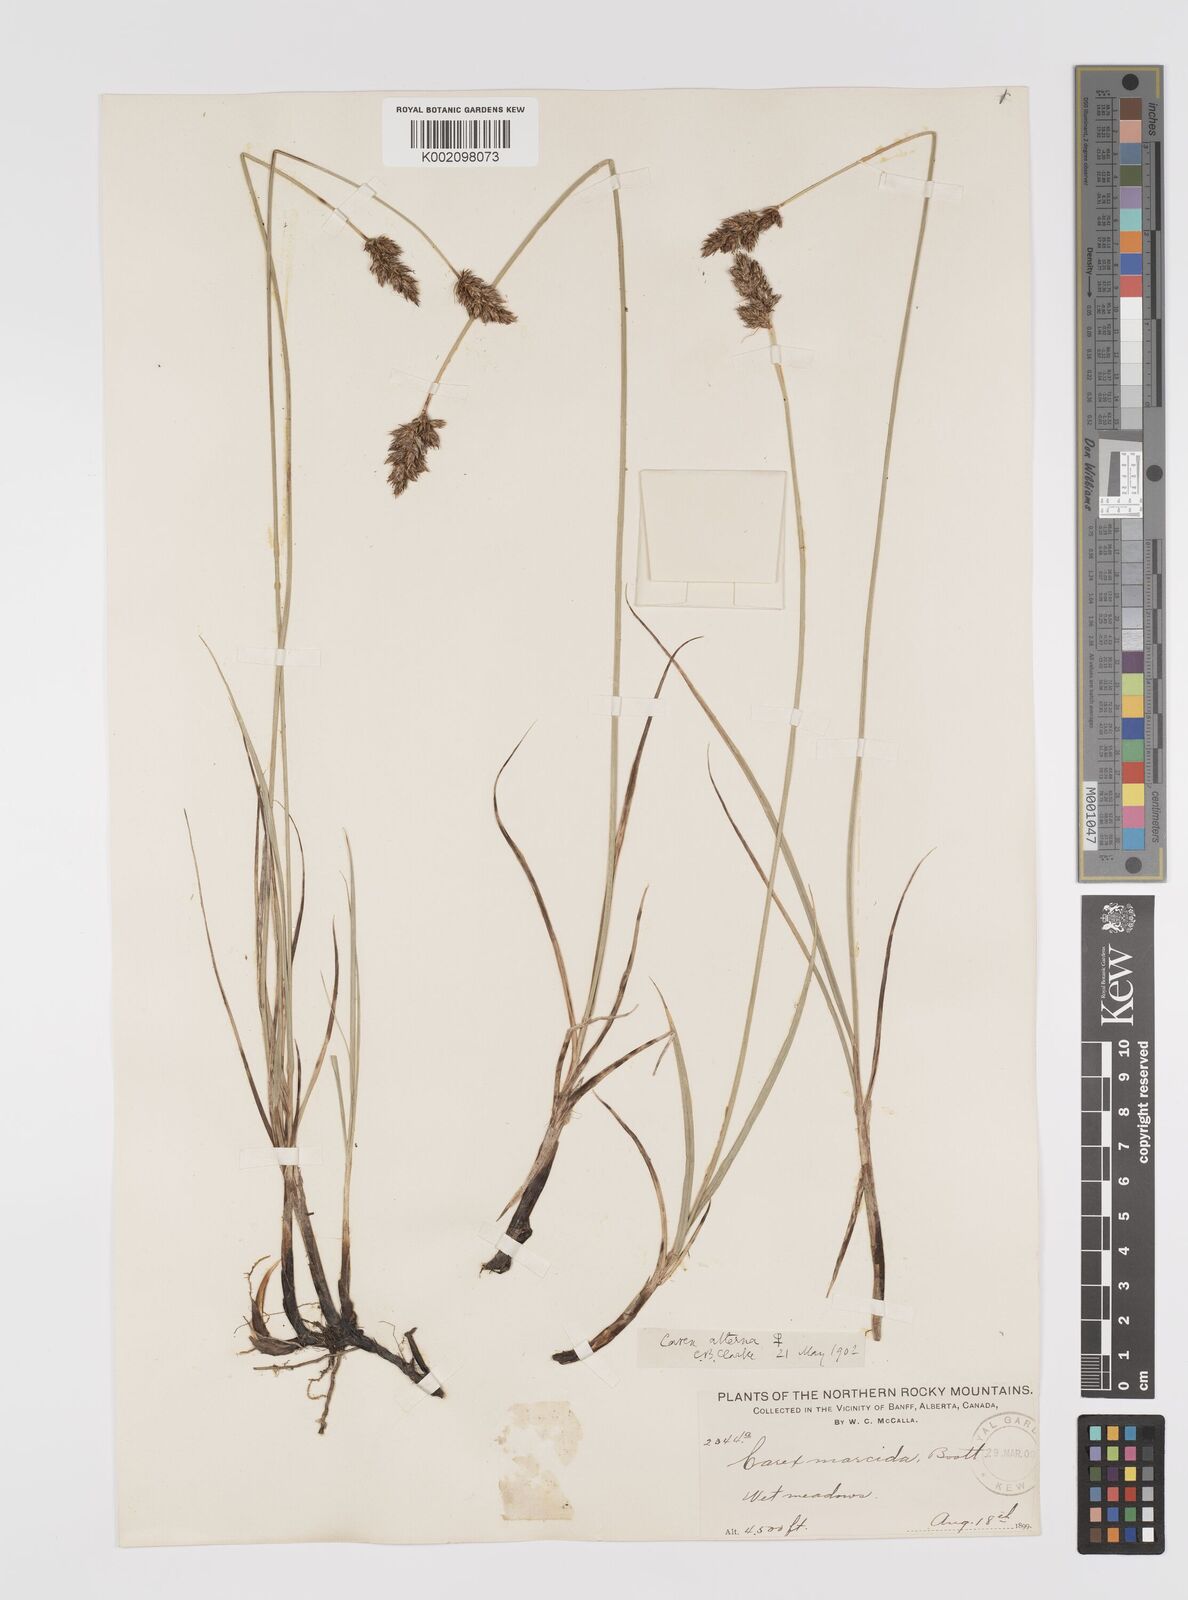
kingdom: Plantae
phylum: Tracheophyta
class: Liliopsida
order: Poales
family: Cyperaceae
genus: Carex
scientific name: Carex praegracilis
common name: Black creeper sedge
